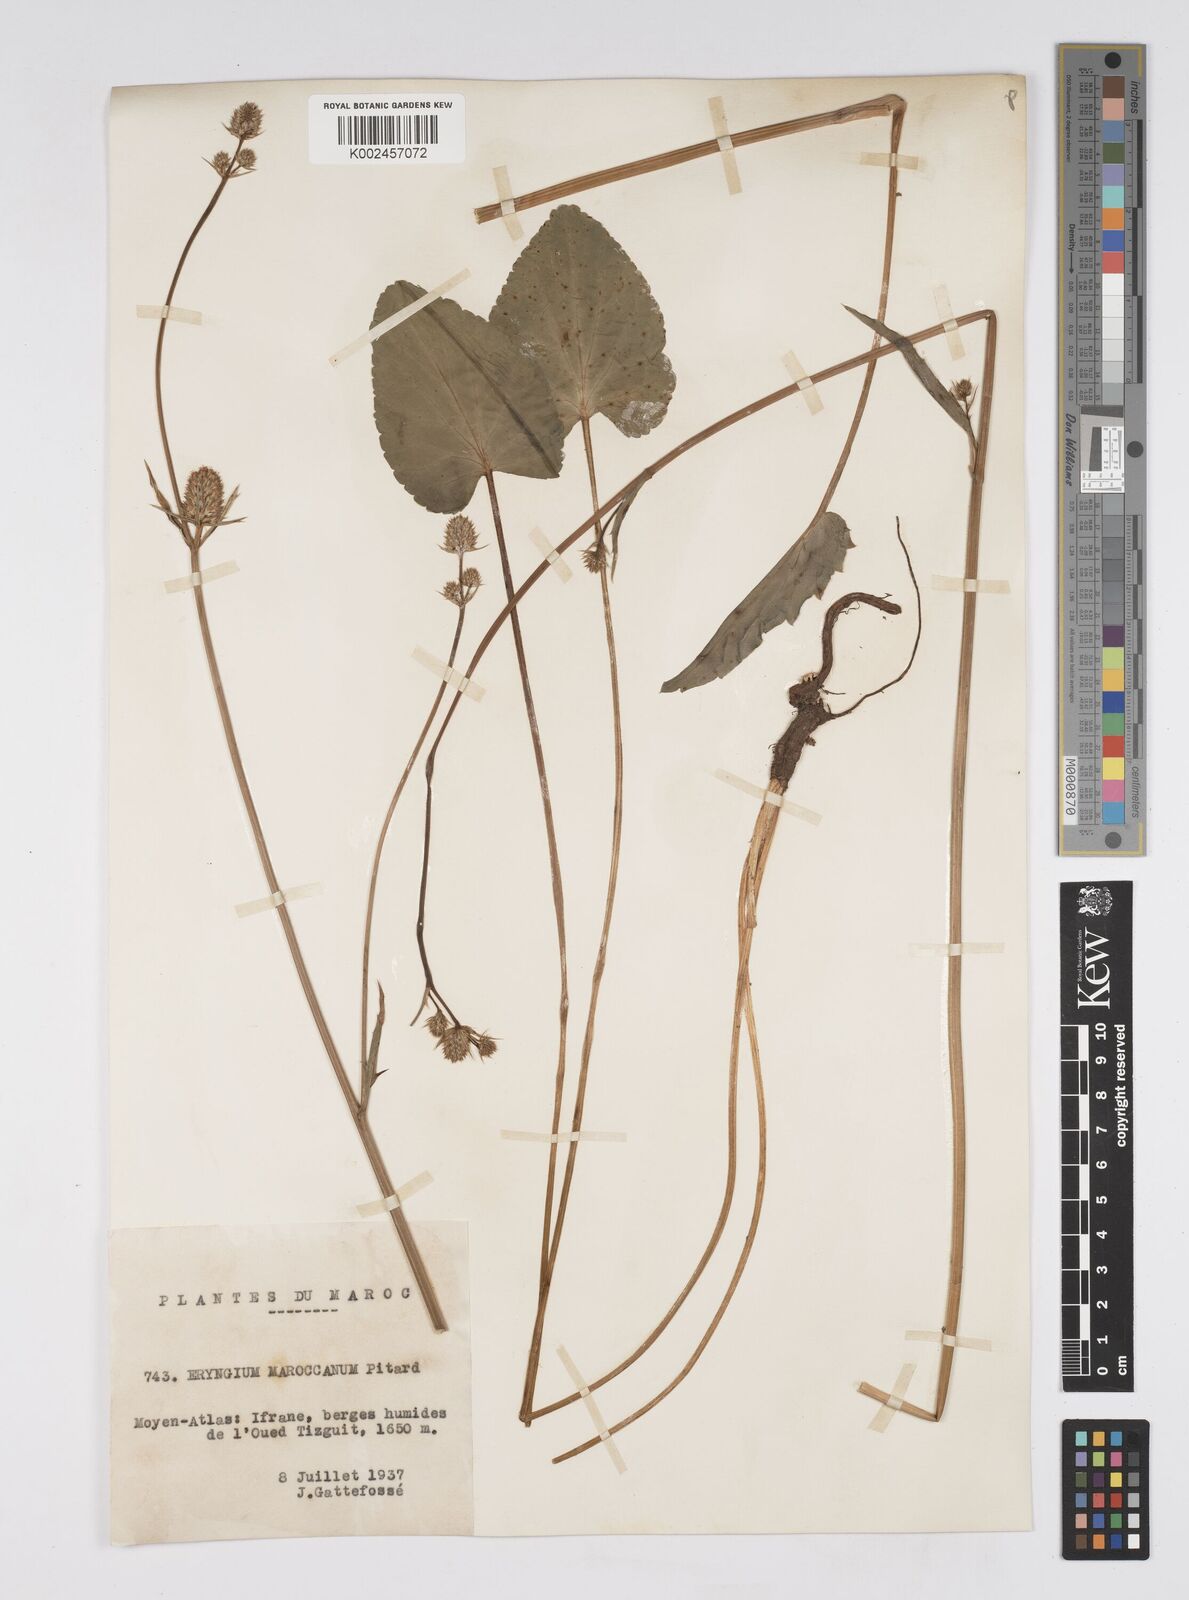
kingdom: Plantae
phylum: Tracheophyta
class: Magnoliopsida
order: Apiales
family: Apiaceae
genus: Eryngium
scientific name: Eryngium marocanum
